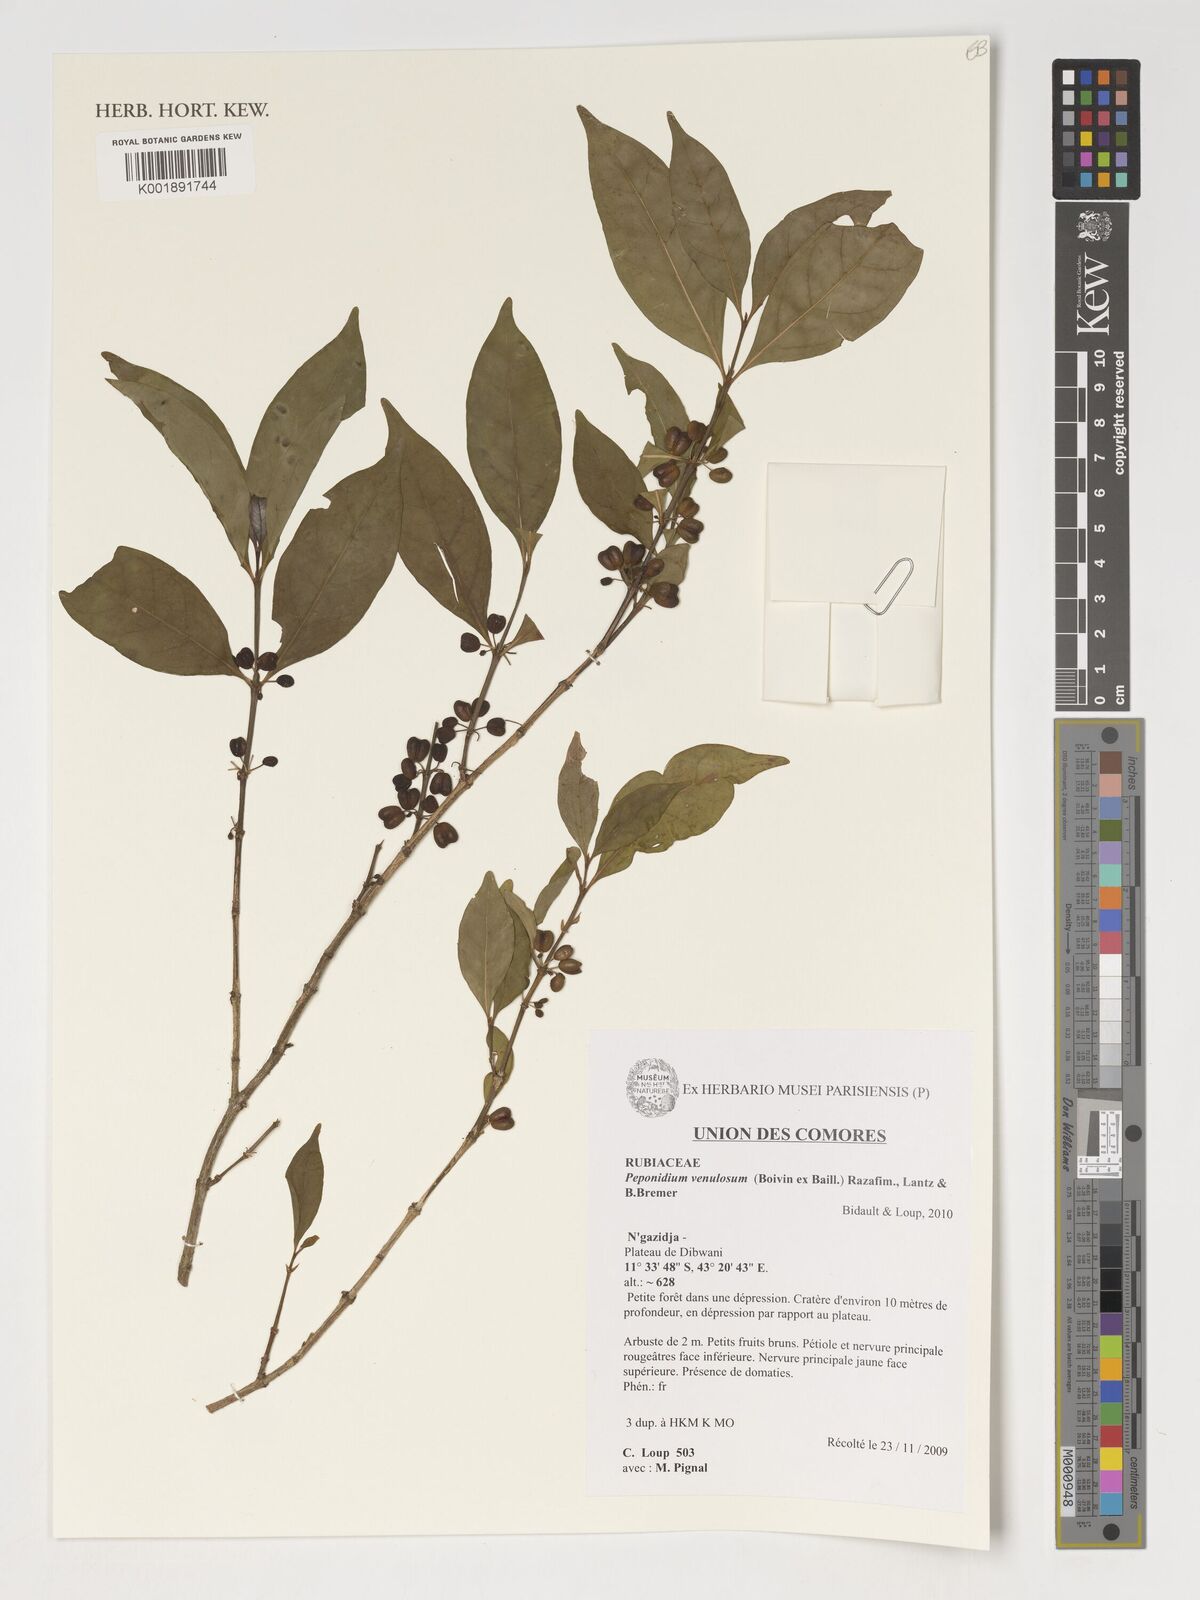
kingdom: Plantae
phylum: Tracheophyta
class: Magnoliopsida
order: Gentianales
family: Rubiaceae
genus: Peponidium
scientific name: Peponidium venulosum
